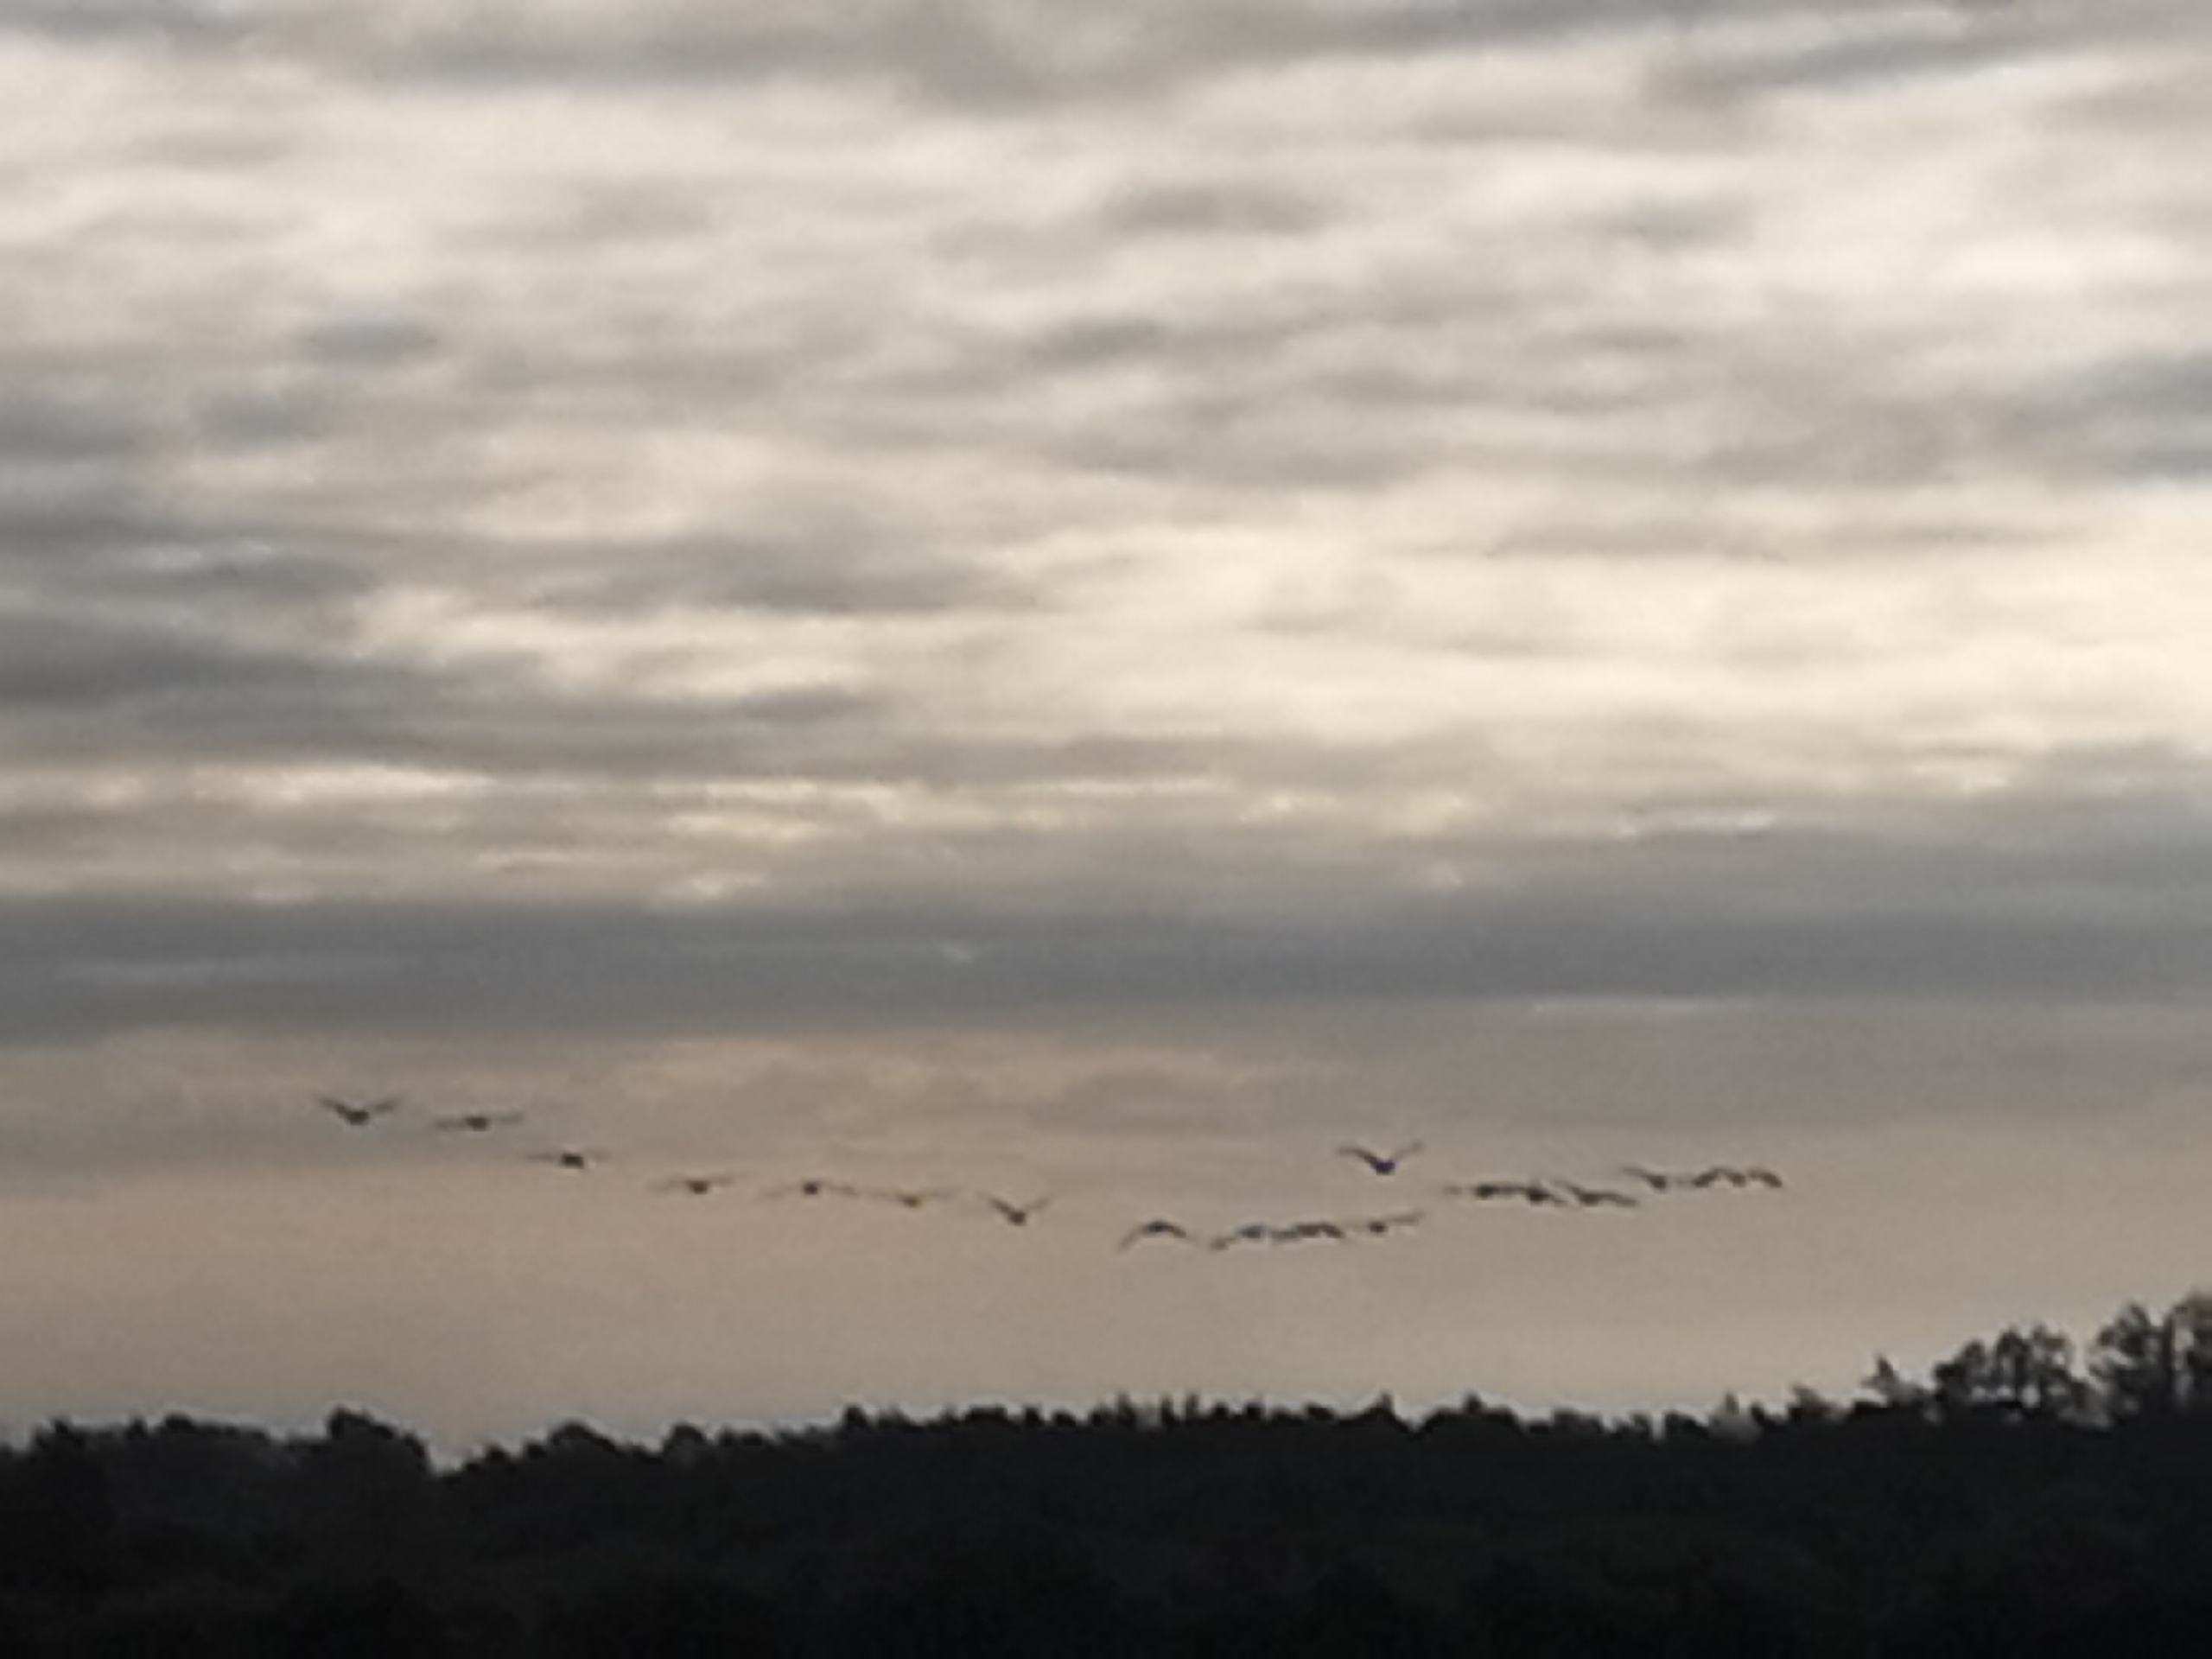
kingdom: Animalia
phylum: Chordata
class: Aves
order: Gruiformes
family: Gruidae
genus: Grus
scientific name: Grus grus
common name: Trane
